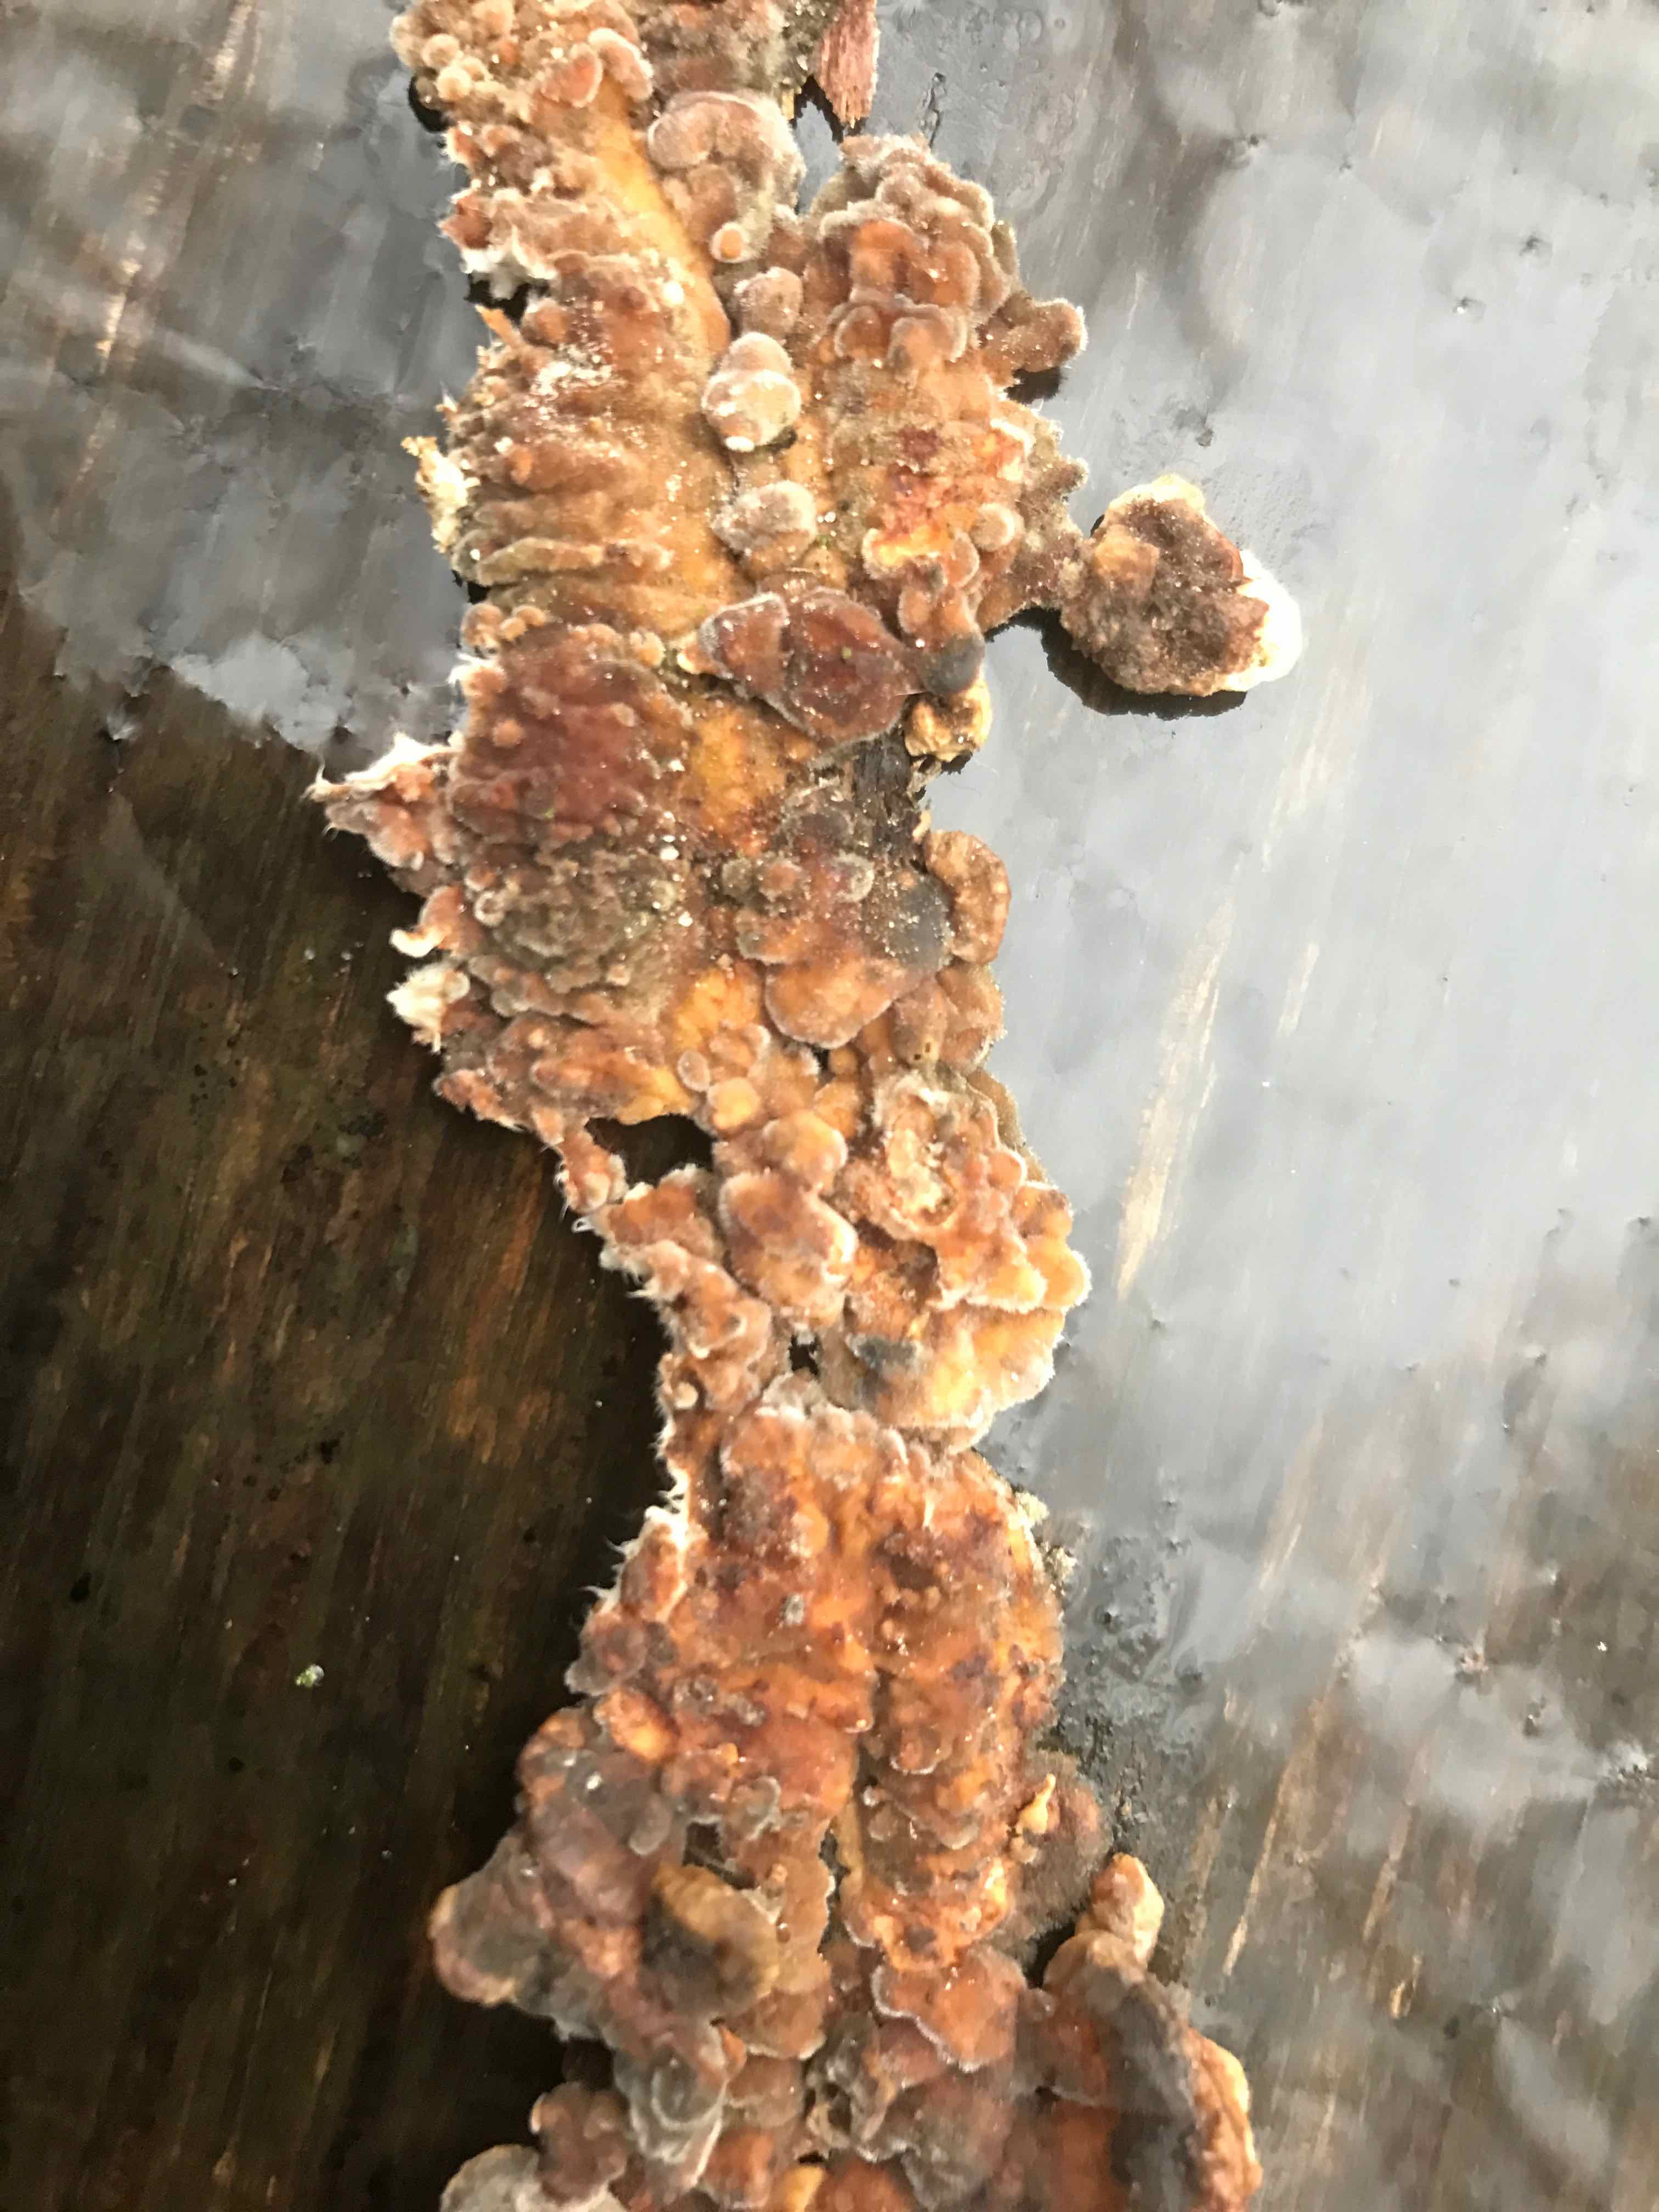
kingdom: Fungi
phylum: Basidiomycota
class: Agaricomycetes
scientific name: Agaricomycetes
